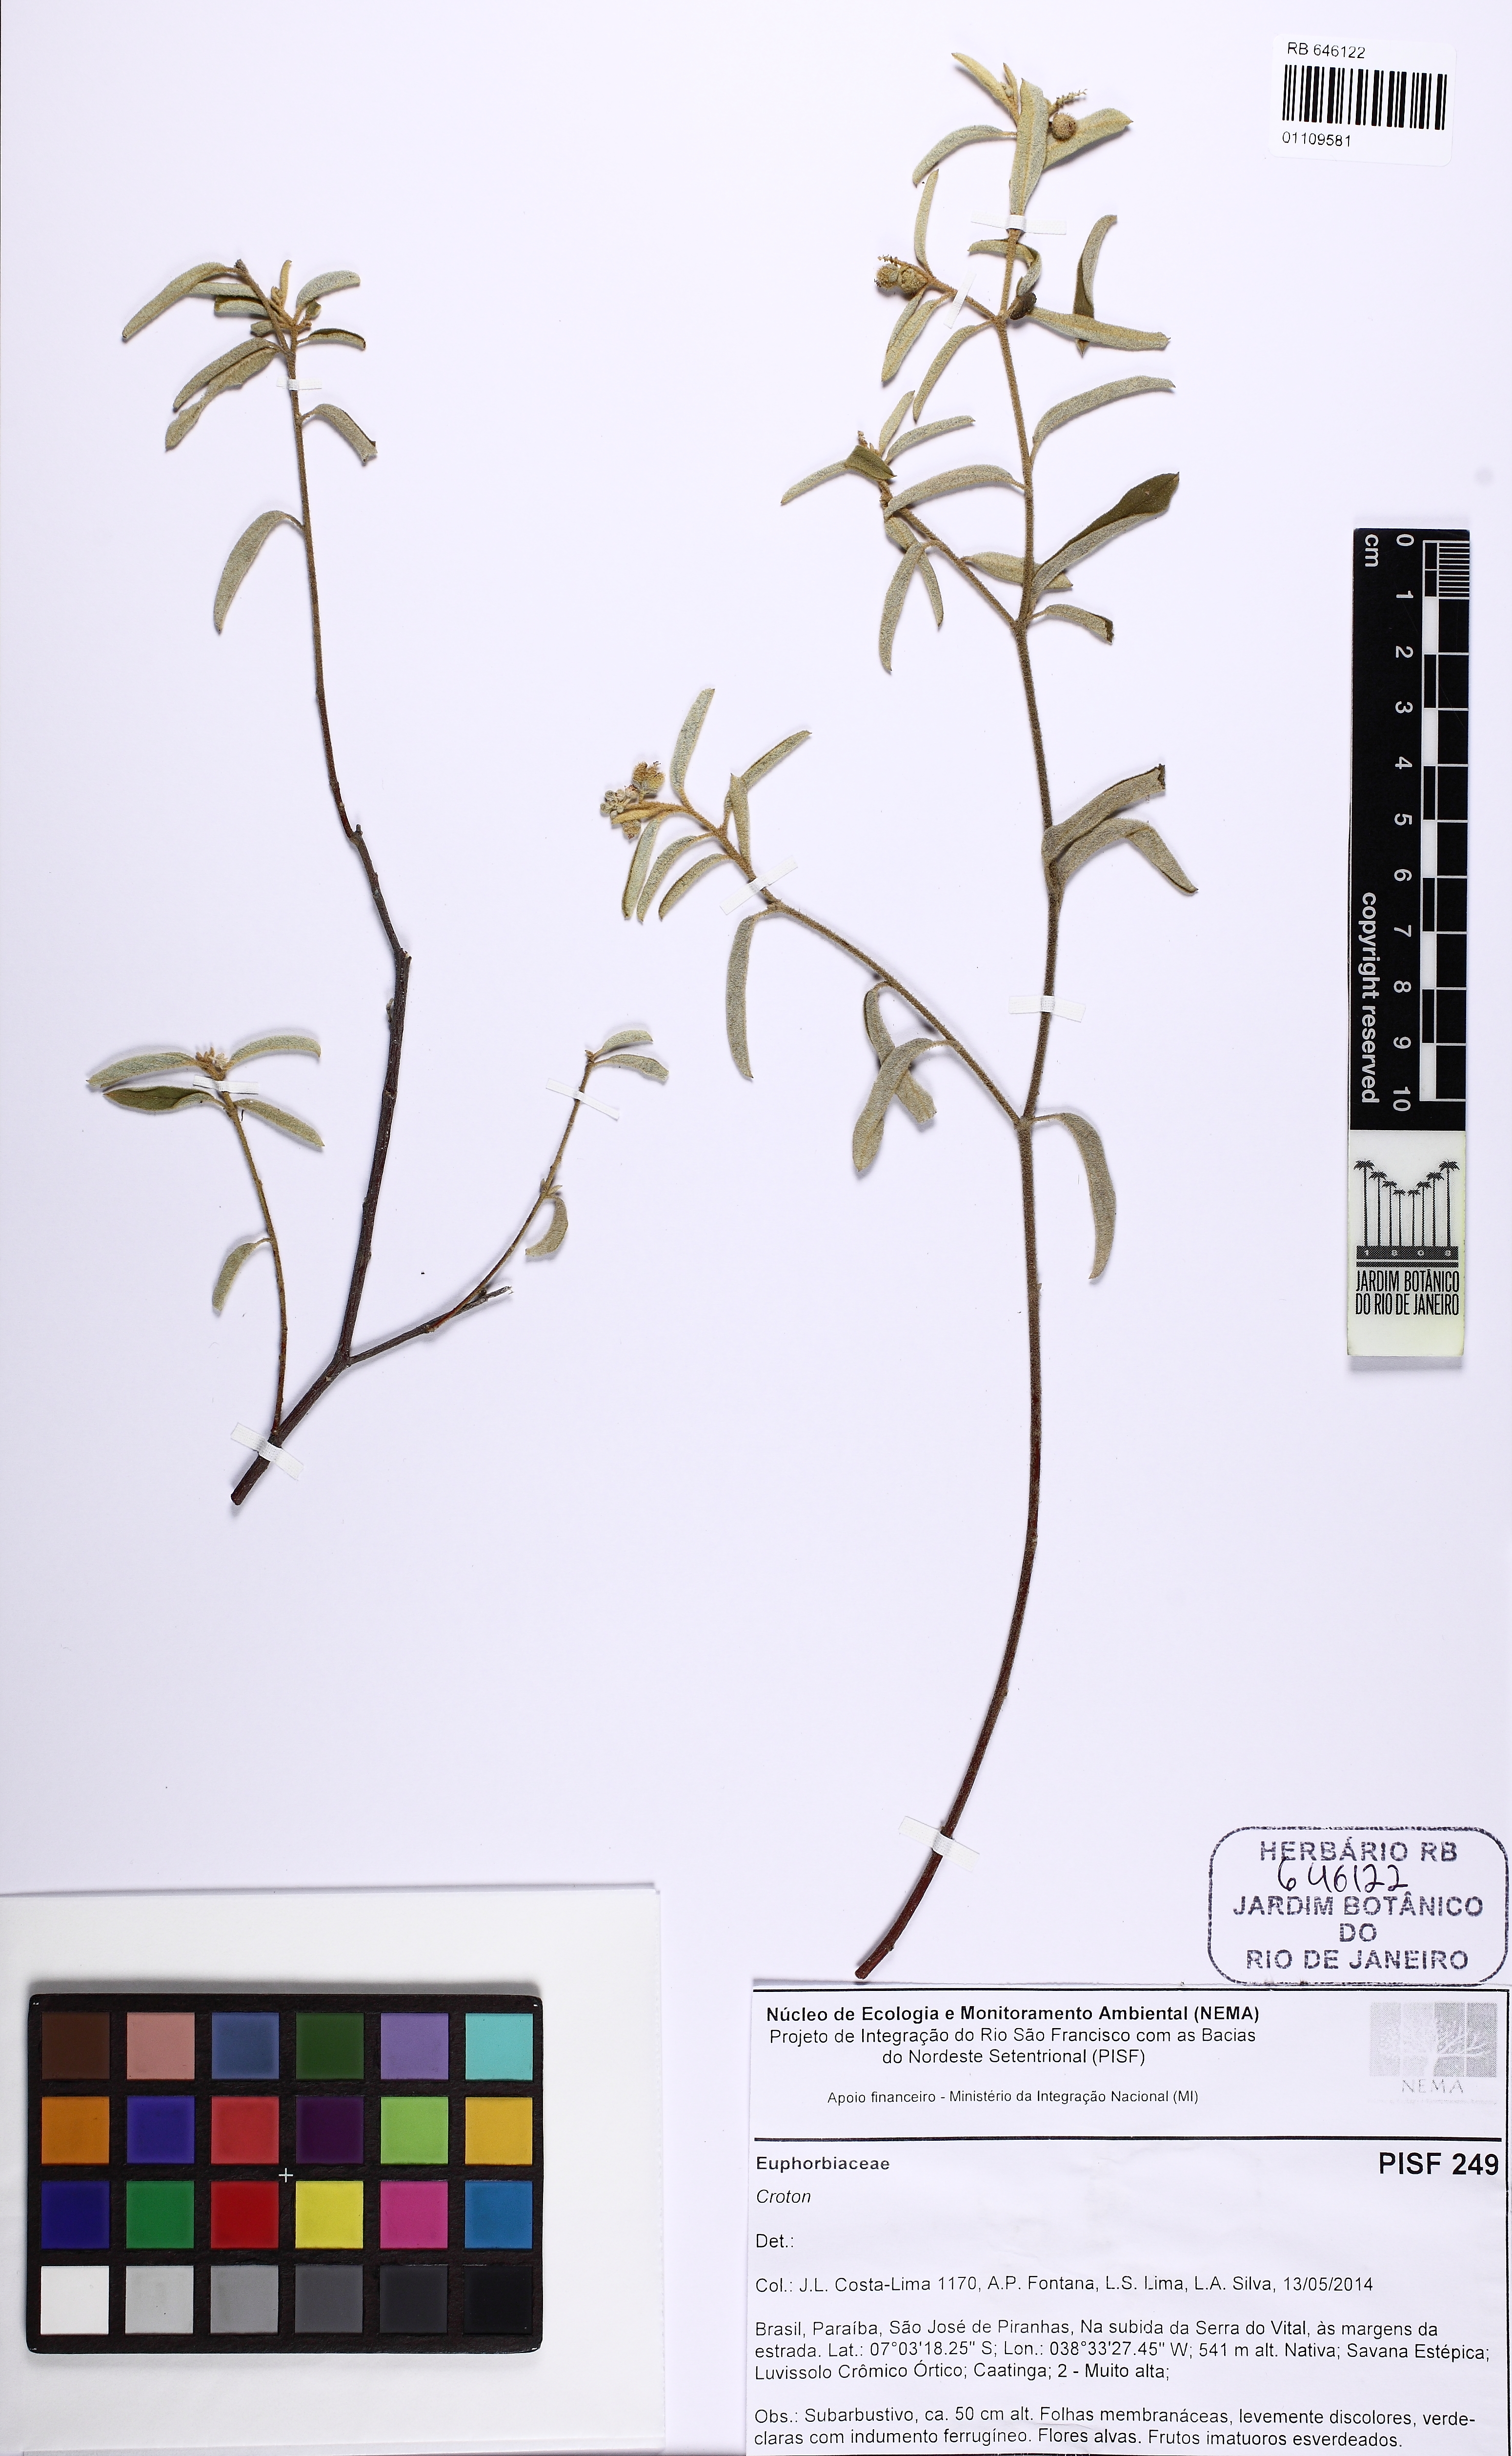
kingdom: Plantae
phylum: Tracheophyta
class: Magnoliopsida
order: Malpighiales
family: Euphorbiaceae
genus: Croton
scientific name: Croton pedicellatus
